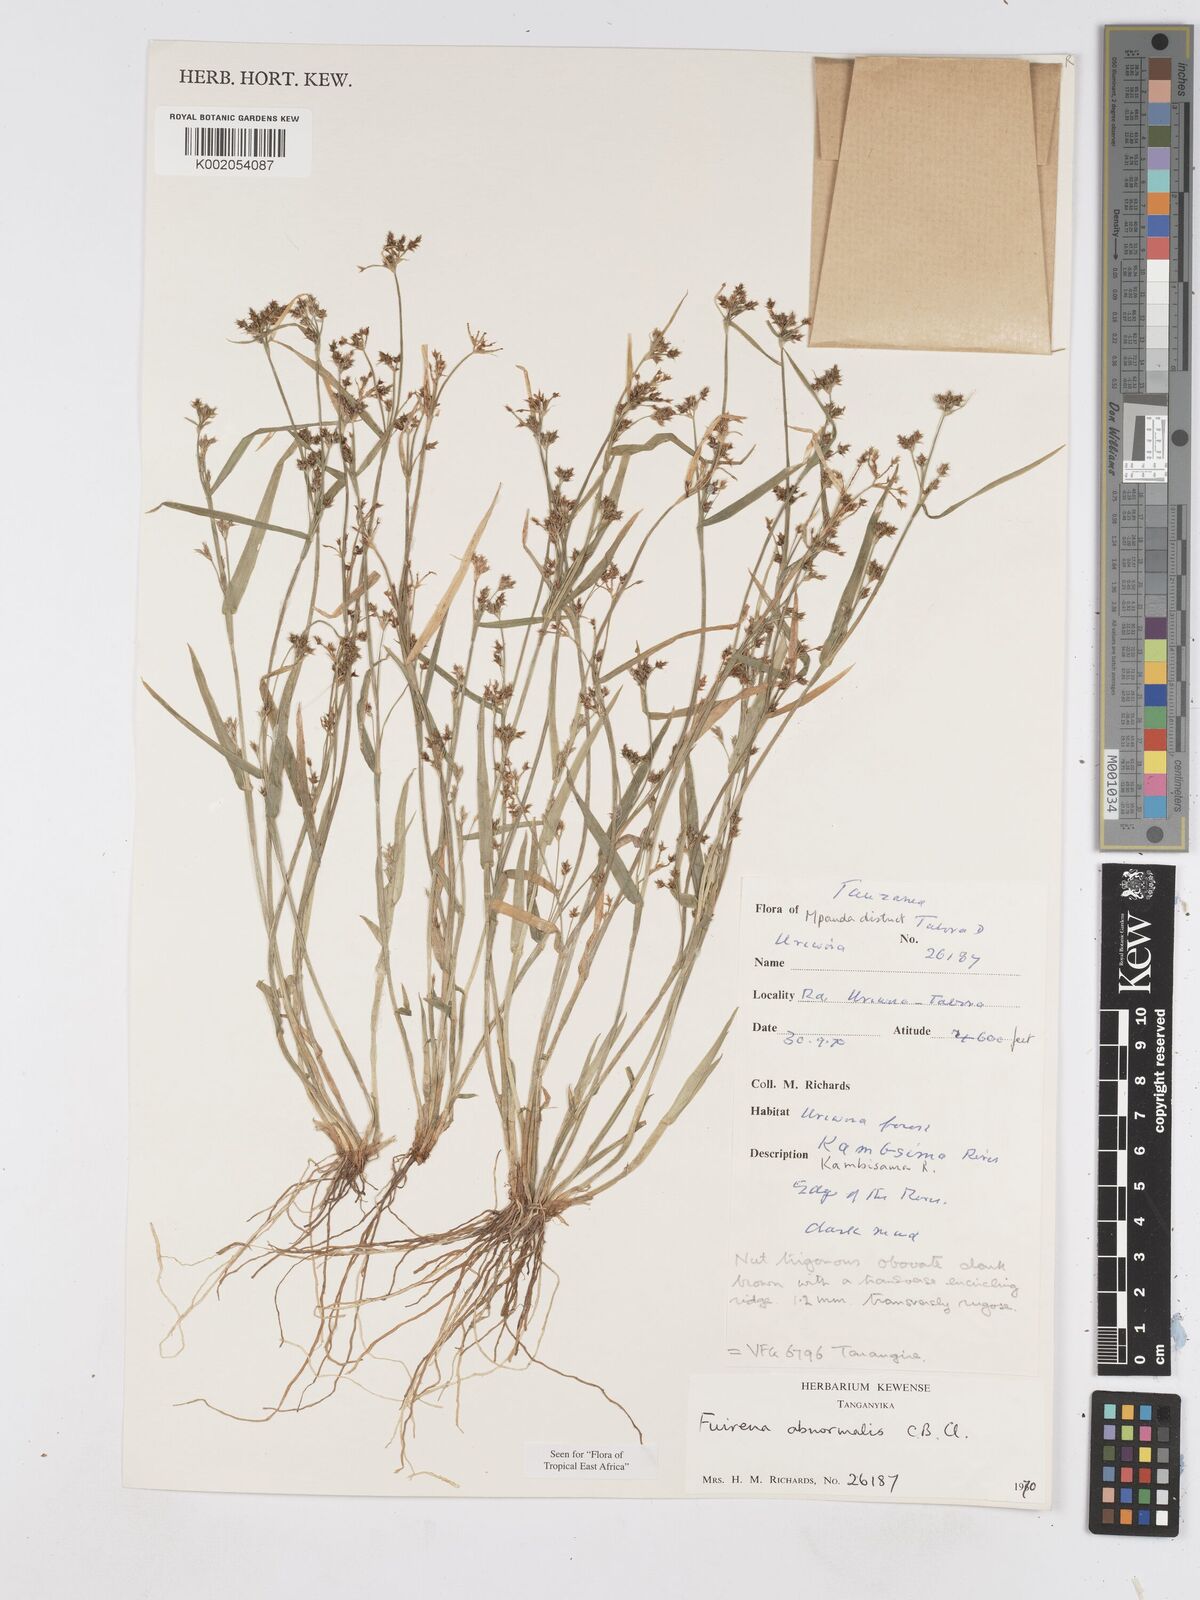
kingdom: Plantae
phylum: Tracheophyta
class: Liliopsida
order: Poales
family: Cyperaceae
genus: Fuirena
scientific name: Fuirena abnormalis
